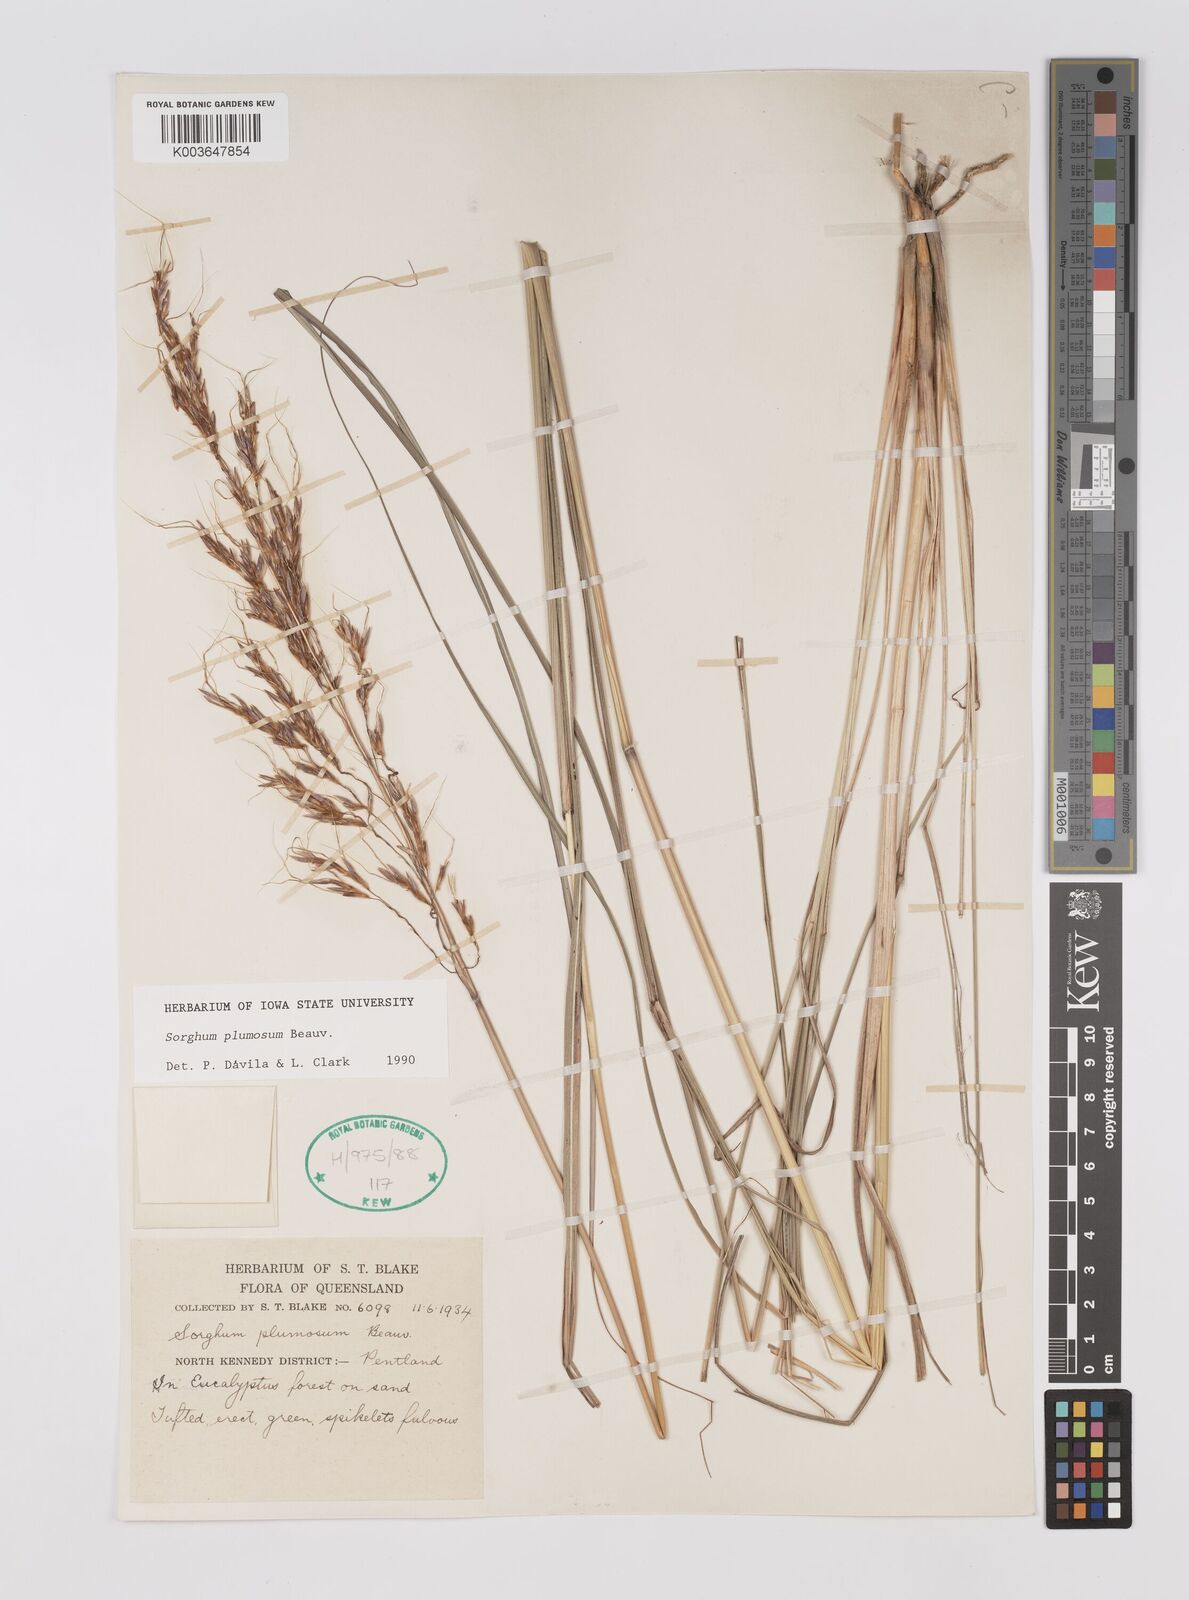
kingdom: Plantae
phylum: Tracheophyta
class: Liliopsida
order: Poales
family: Poaceae
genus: Sarga
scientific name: Sarga plumosa
